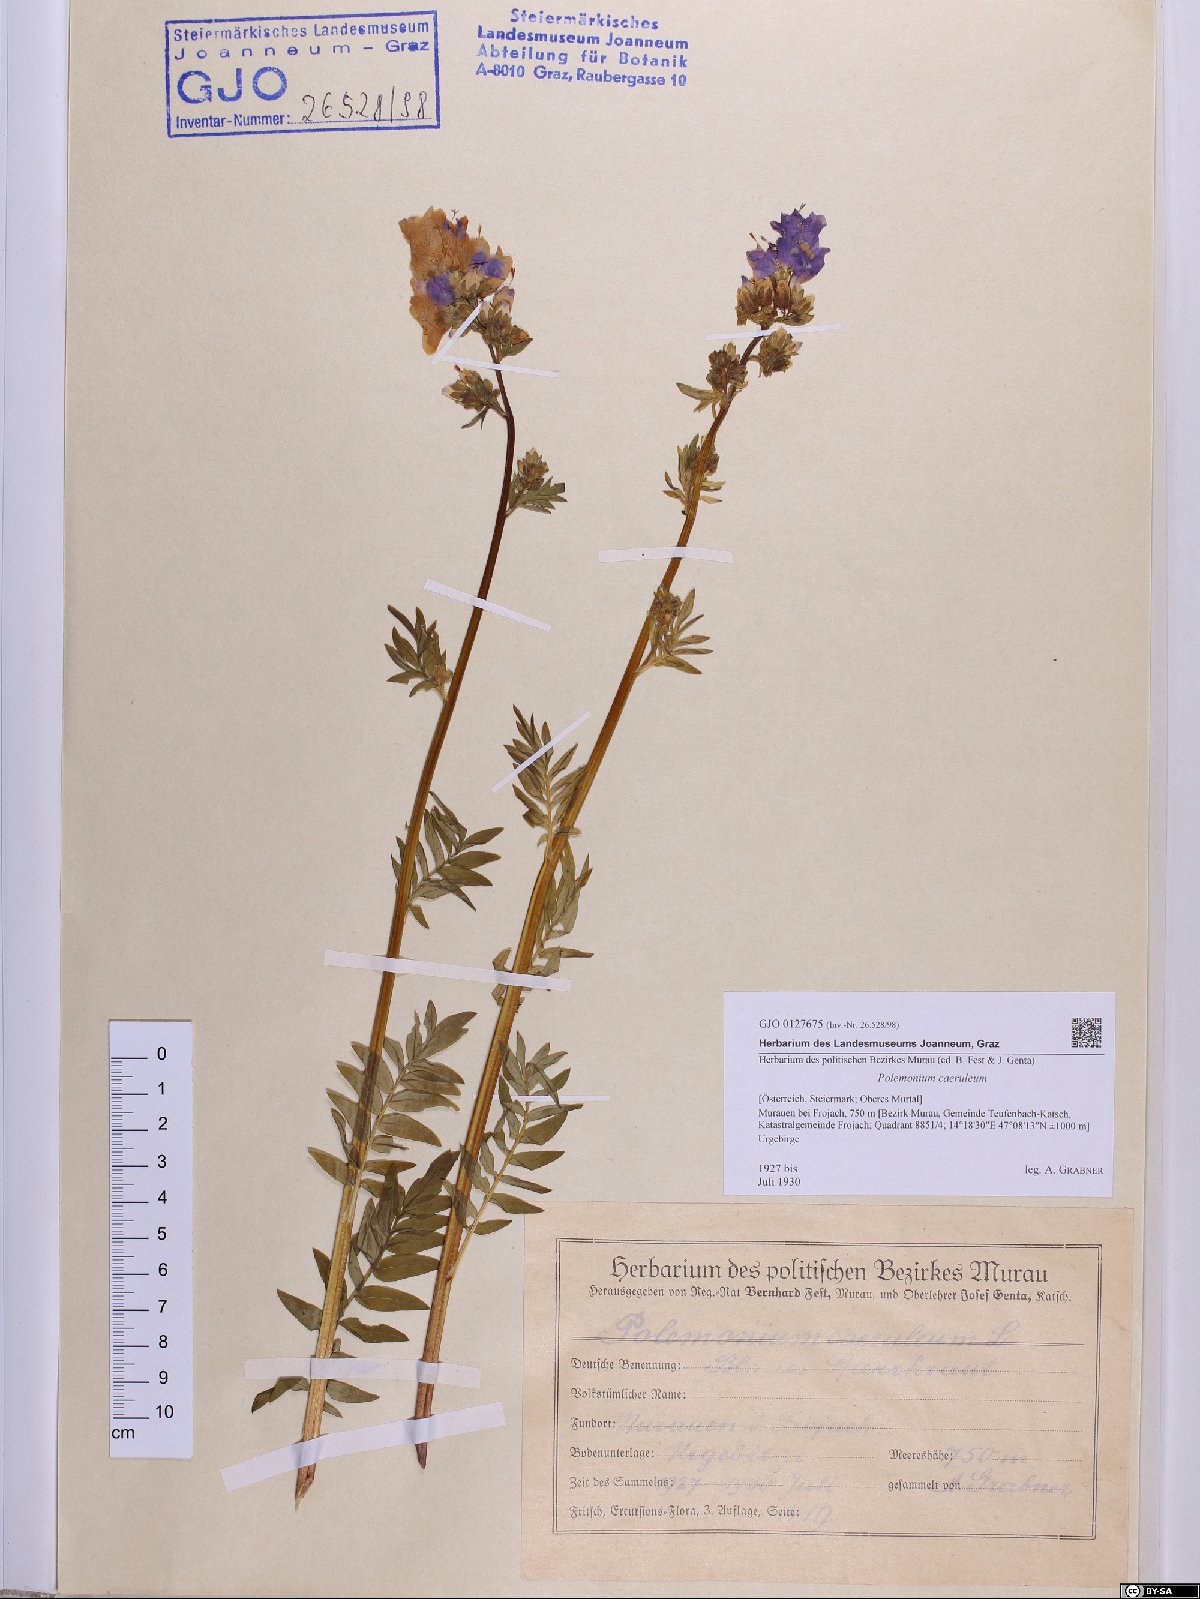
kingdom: Plantae
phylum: Tracheophyta
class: Magnoliopsida
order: Ericales
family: Polemoniaceae
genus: Polemonium
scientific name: Polemonium caeruleum
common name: Jacob's-ladder
